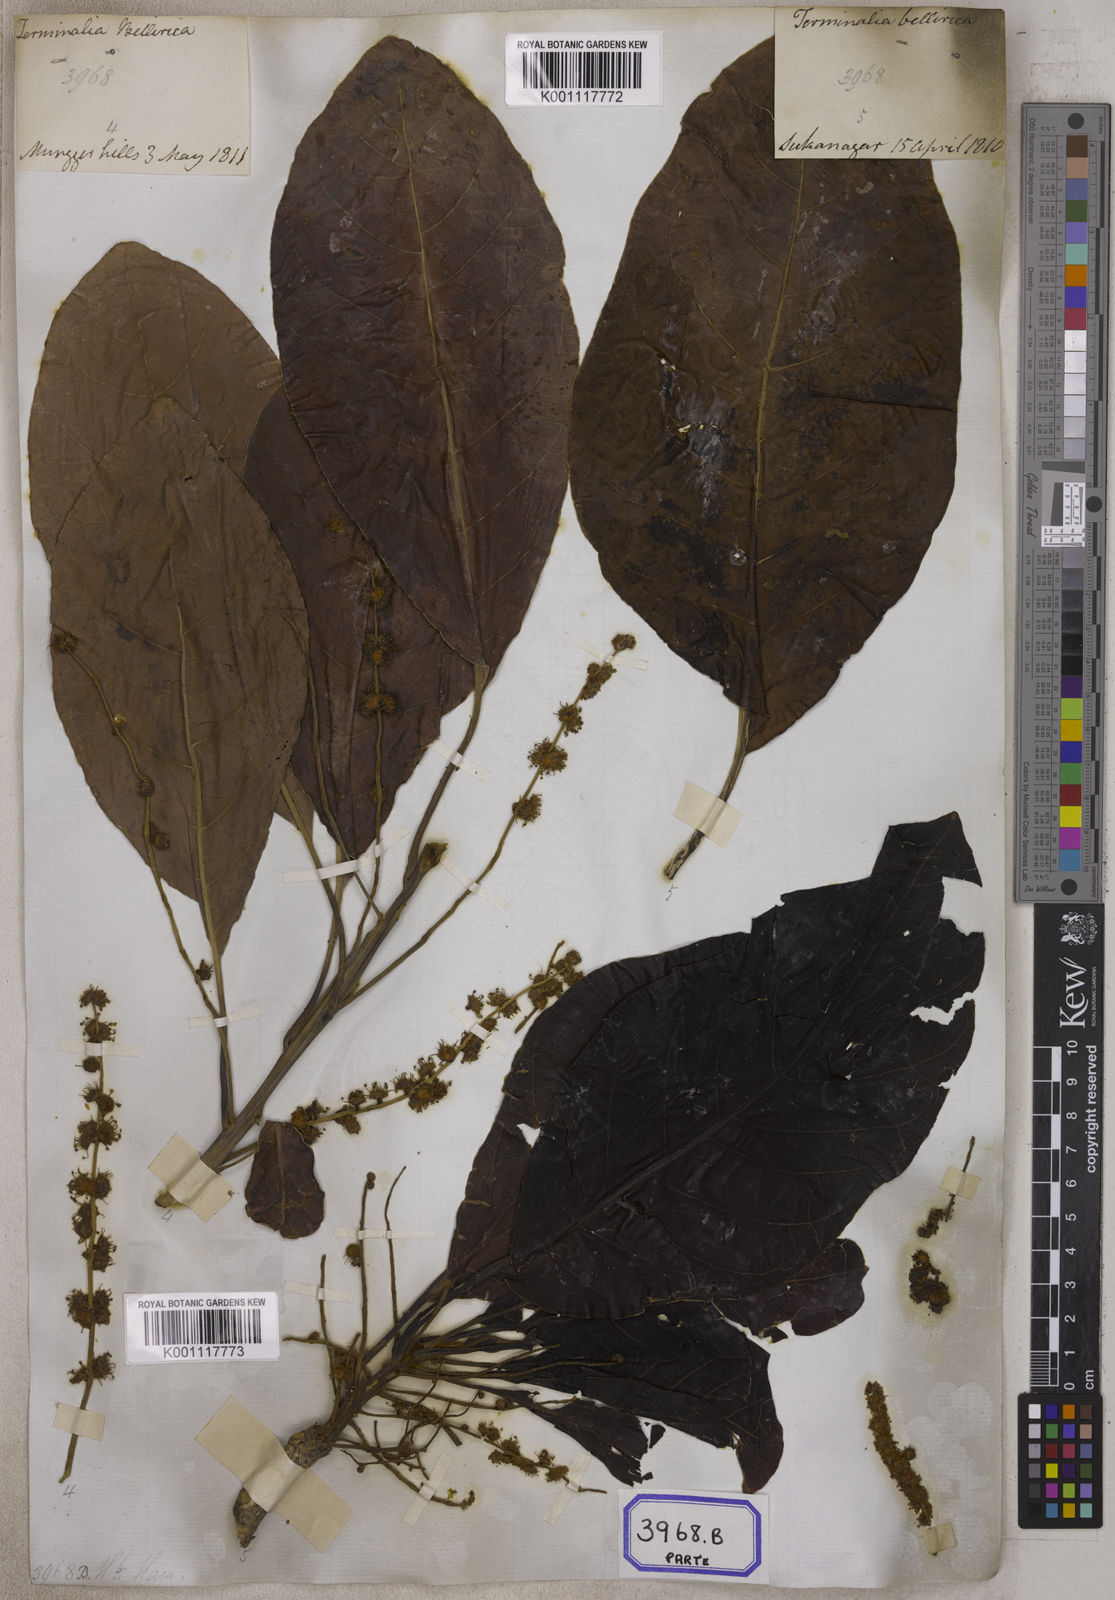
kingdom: Plantae
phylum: Tracheophyta
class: Magnoliopsida
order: Myrtales
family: Combretaceae
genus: Terminalia
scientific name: Terminalia bellirica
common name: Beleric myrobalan
